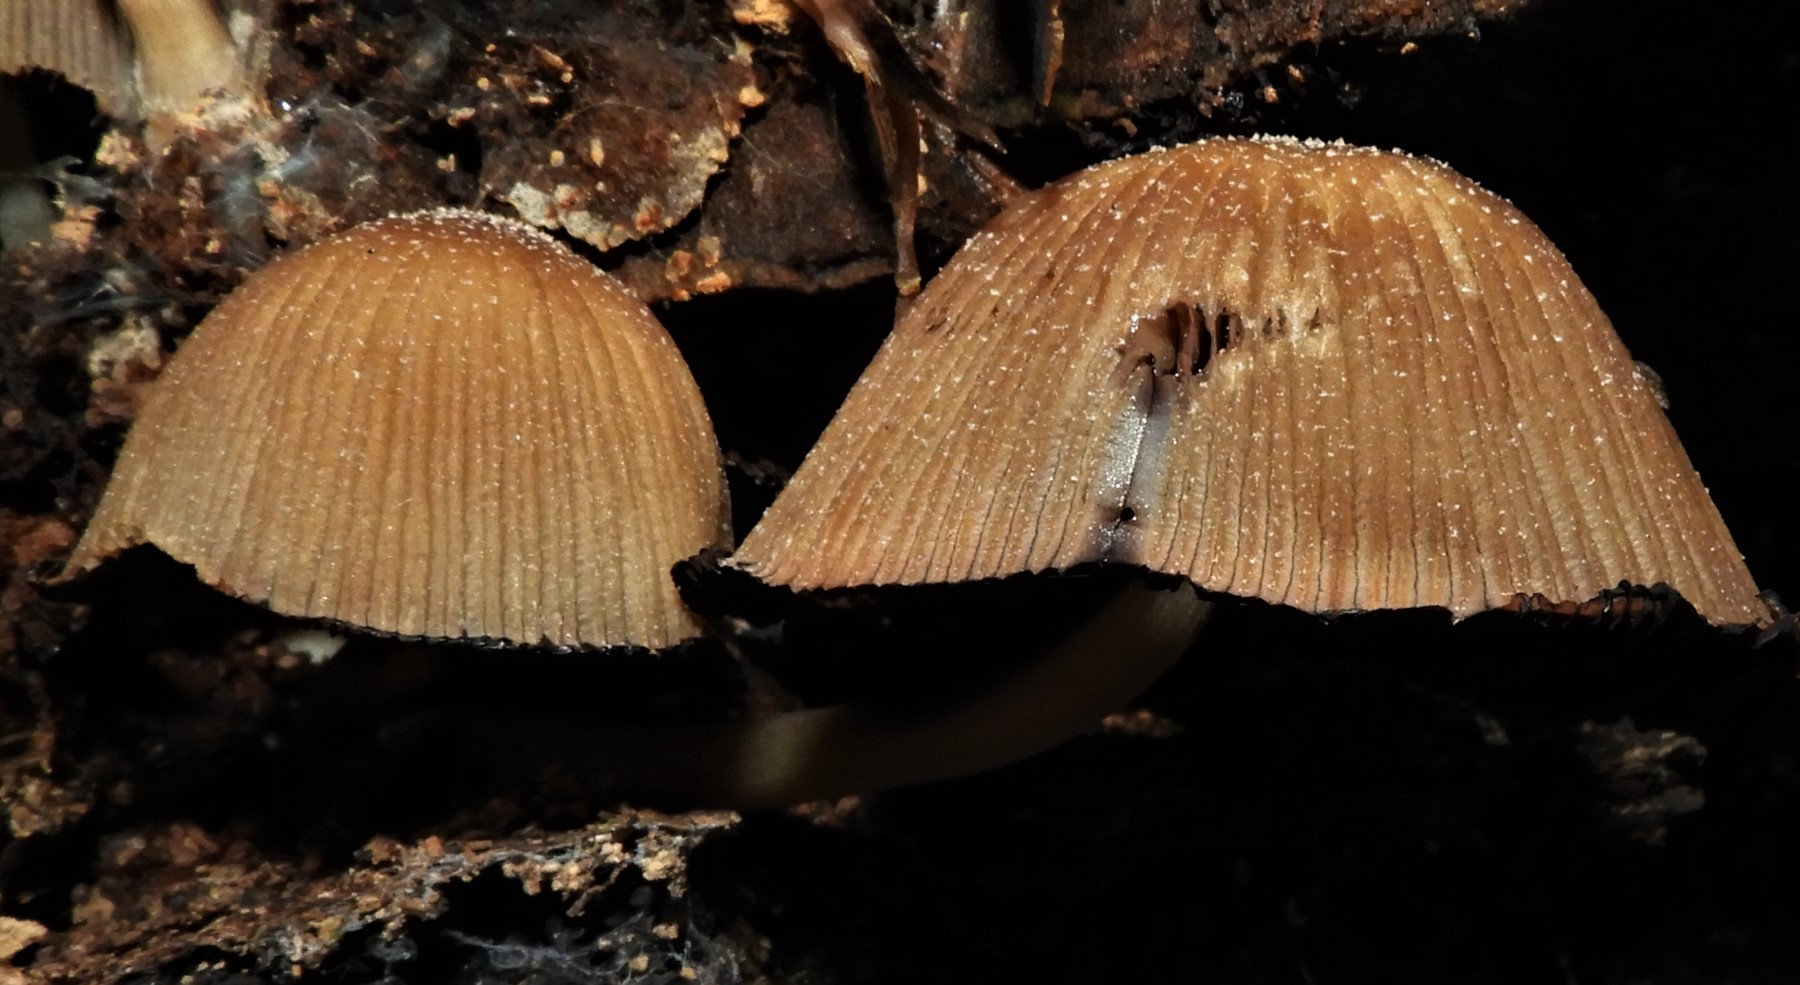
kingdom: Fungi
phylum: Basidiomycota
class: Agaricomycetes
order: Agaricales
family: Psathyrellaceae
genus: Coprinellus
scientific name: Coprinellus micaceus
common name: glimmer-blækhat
